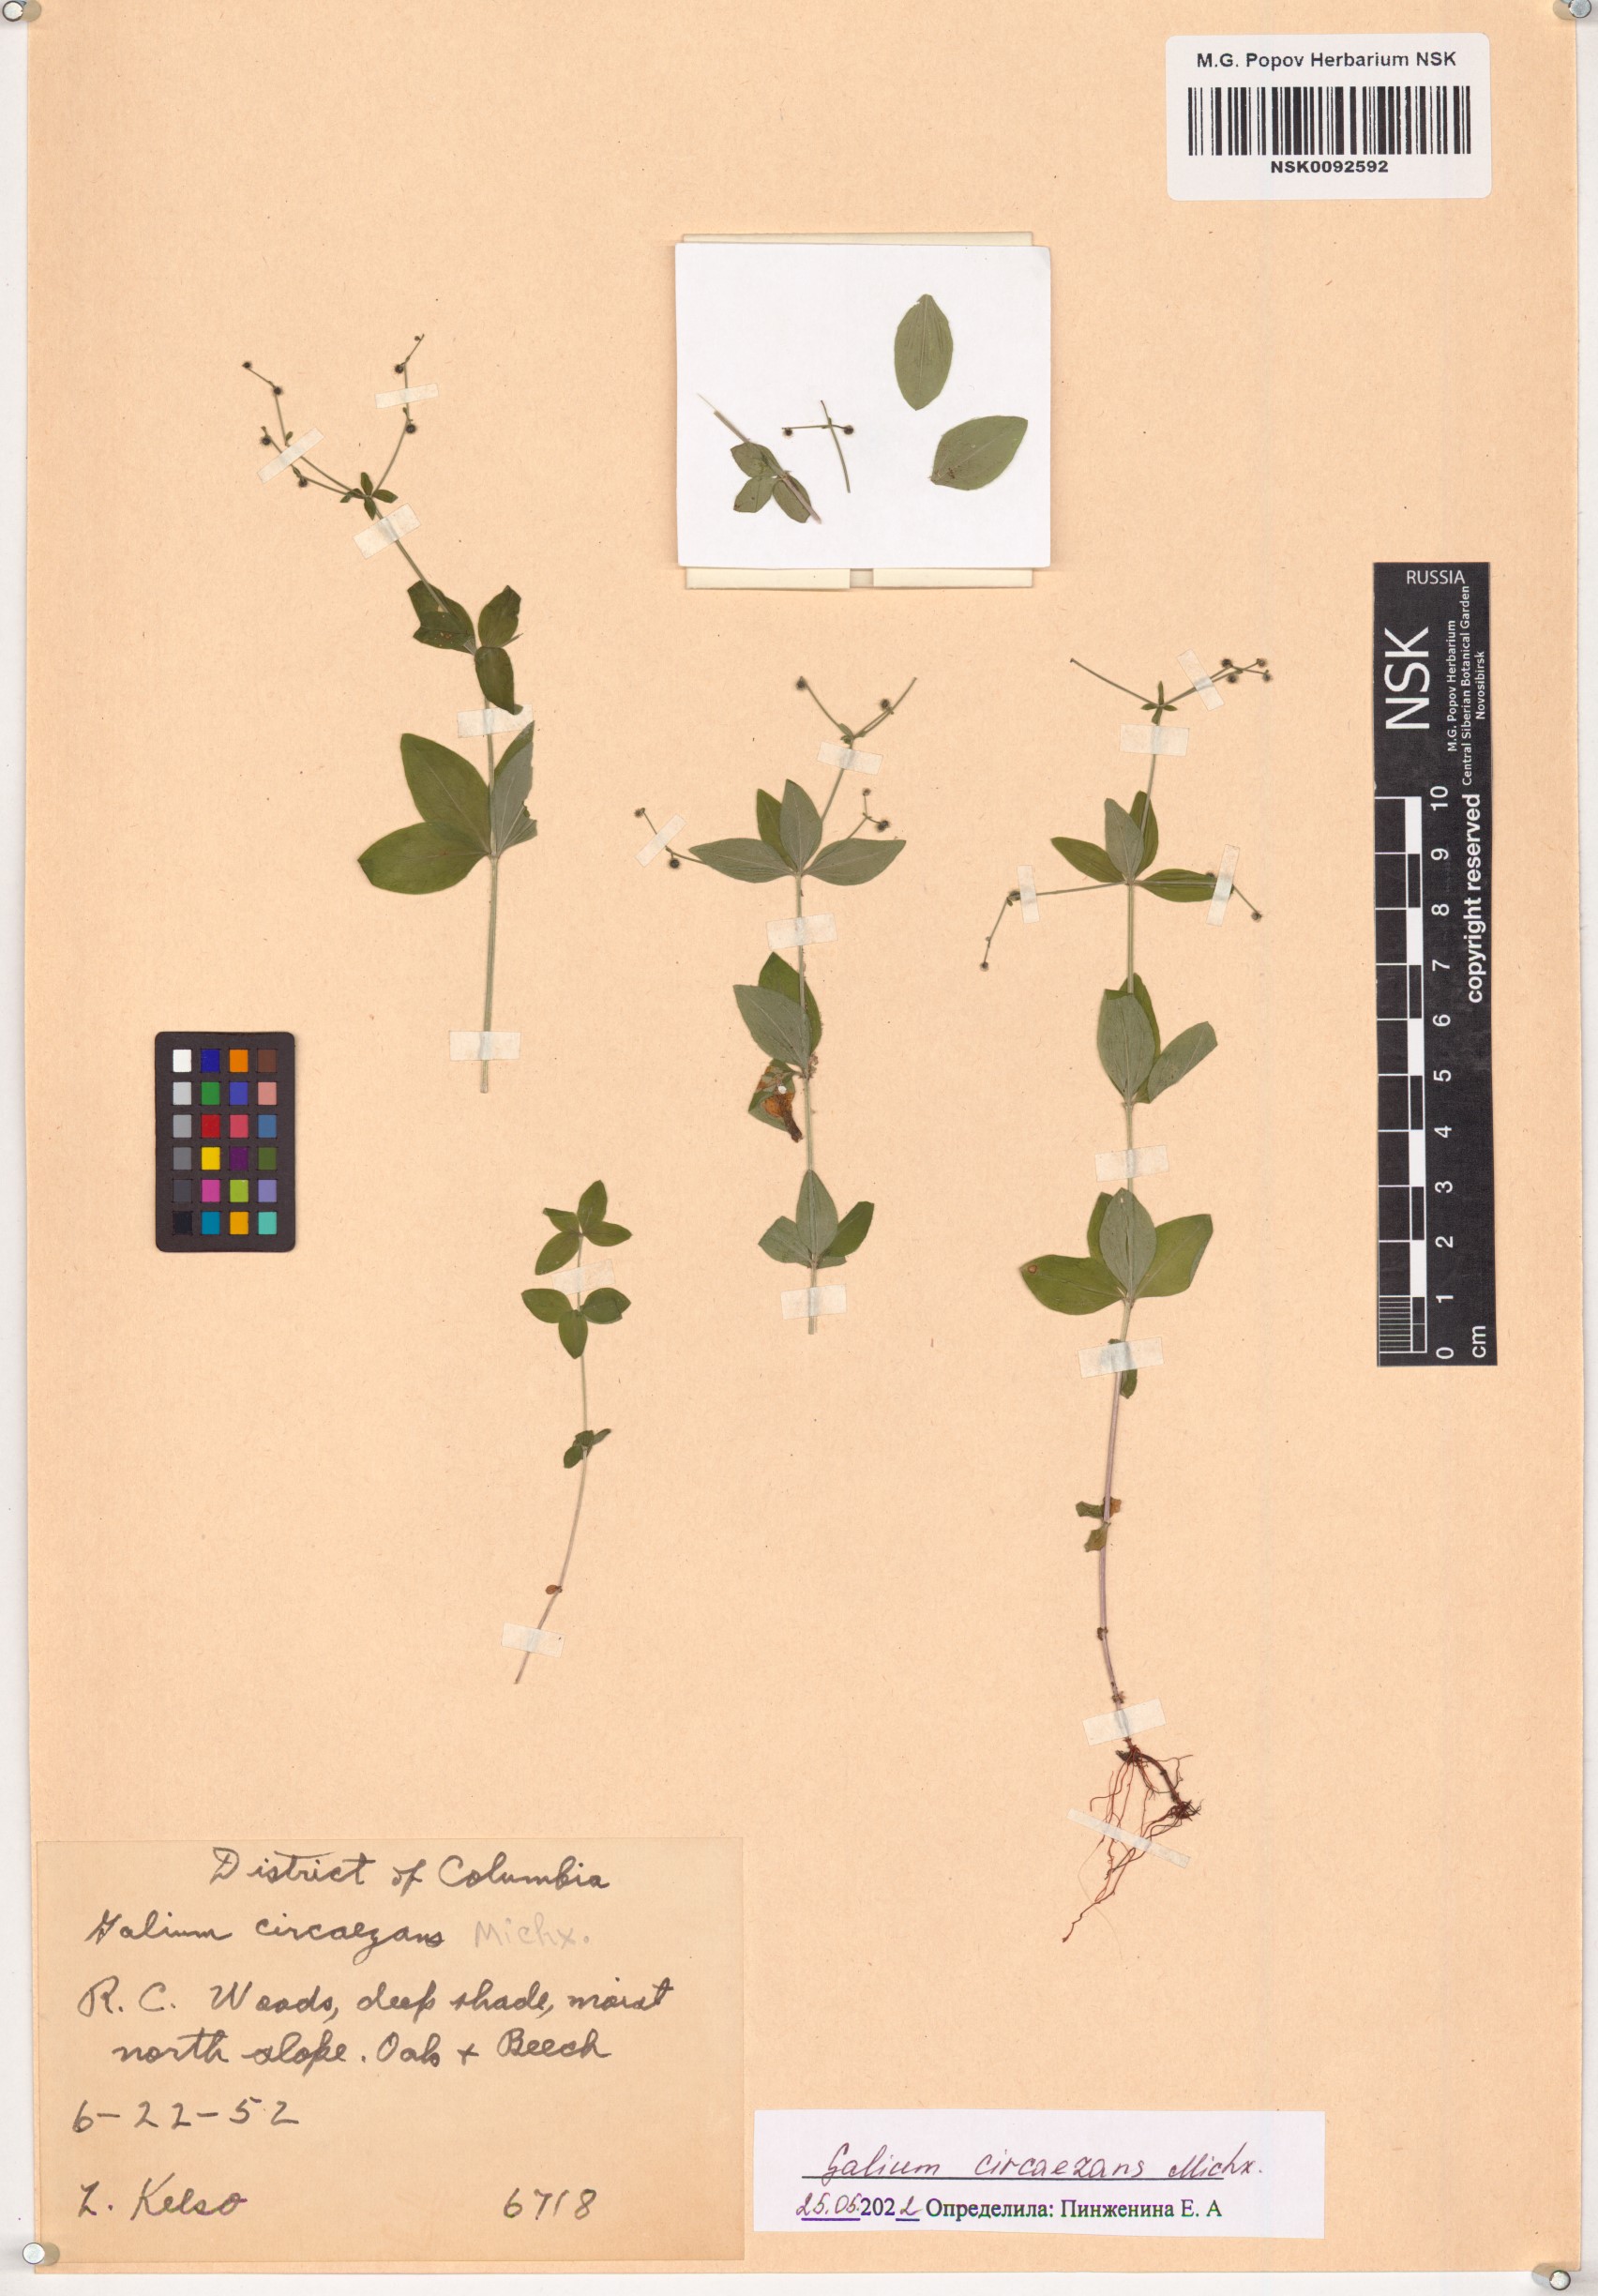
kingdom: Plantae
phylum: Tracheophyta
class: Magnoliopsida
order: Gentianales
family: Rubiaceae
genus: Galium
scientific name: Galium circaezans
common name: Forest bedstraw
